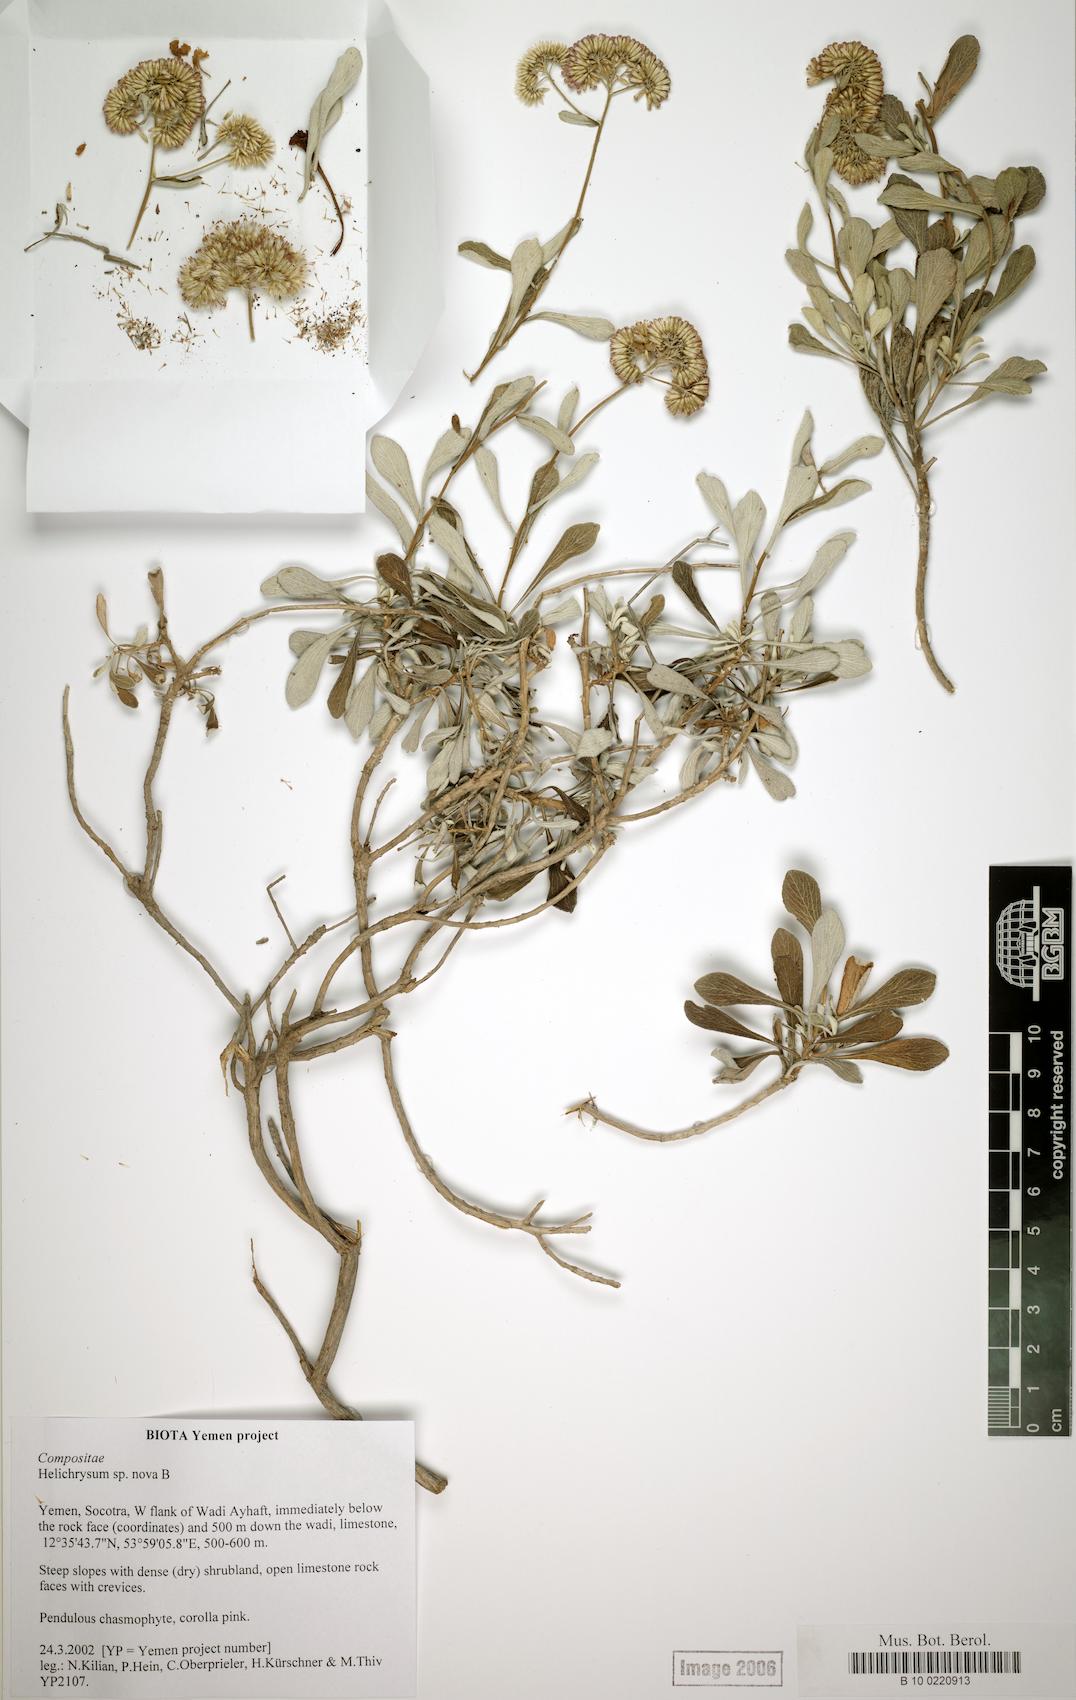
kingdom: Plantae
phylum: Tracheophyta
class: Magnoliopsida
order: Asterales
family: Asteraceae
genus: Libinhania
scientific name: Libinhania pendula
